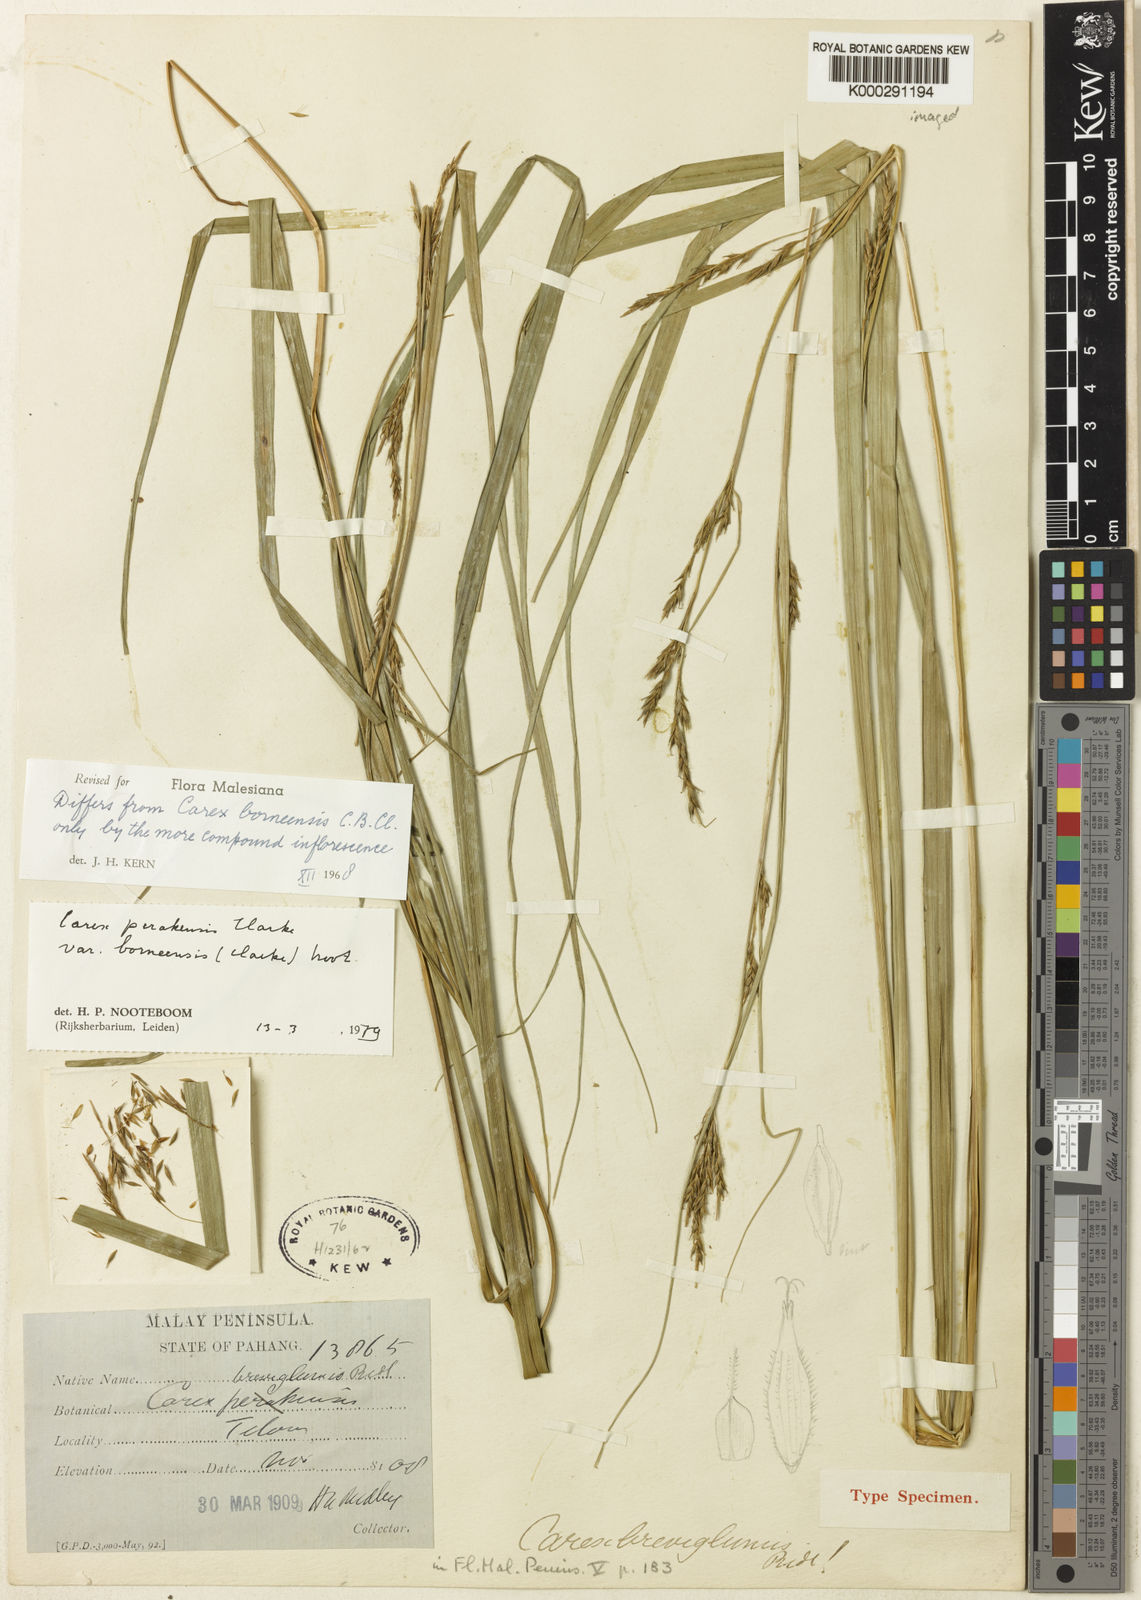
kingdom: Plantae
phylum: Tracheophyta
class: Liliopsida
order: Poales
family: Cyperaceae
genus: Carex
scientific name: Carex perakensis
